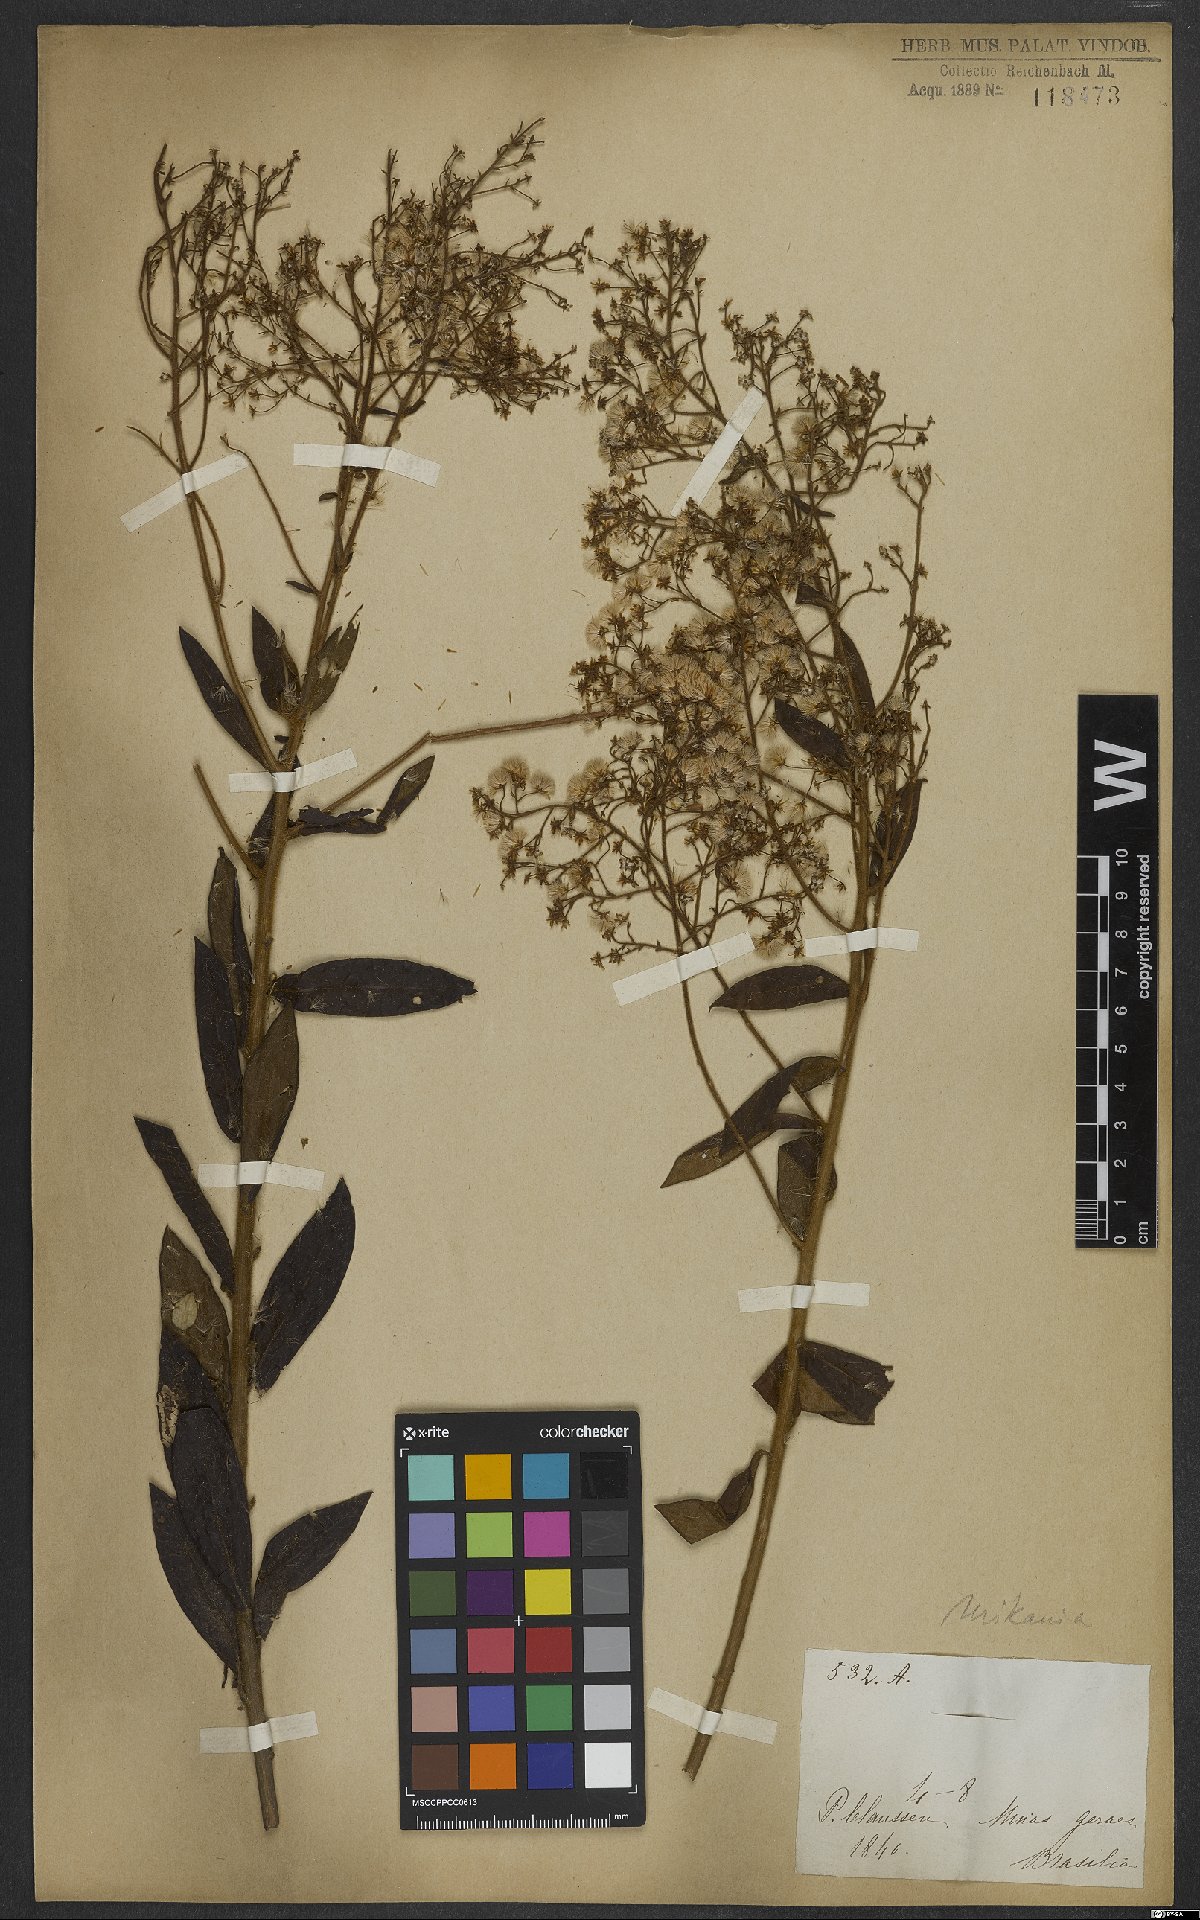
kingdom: Plantae
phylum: Tracheophyta
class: Magnoliopsida
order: Asterales
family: Asteraceae
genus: Mikania
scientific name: Mikania
